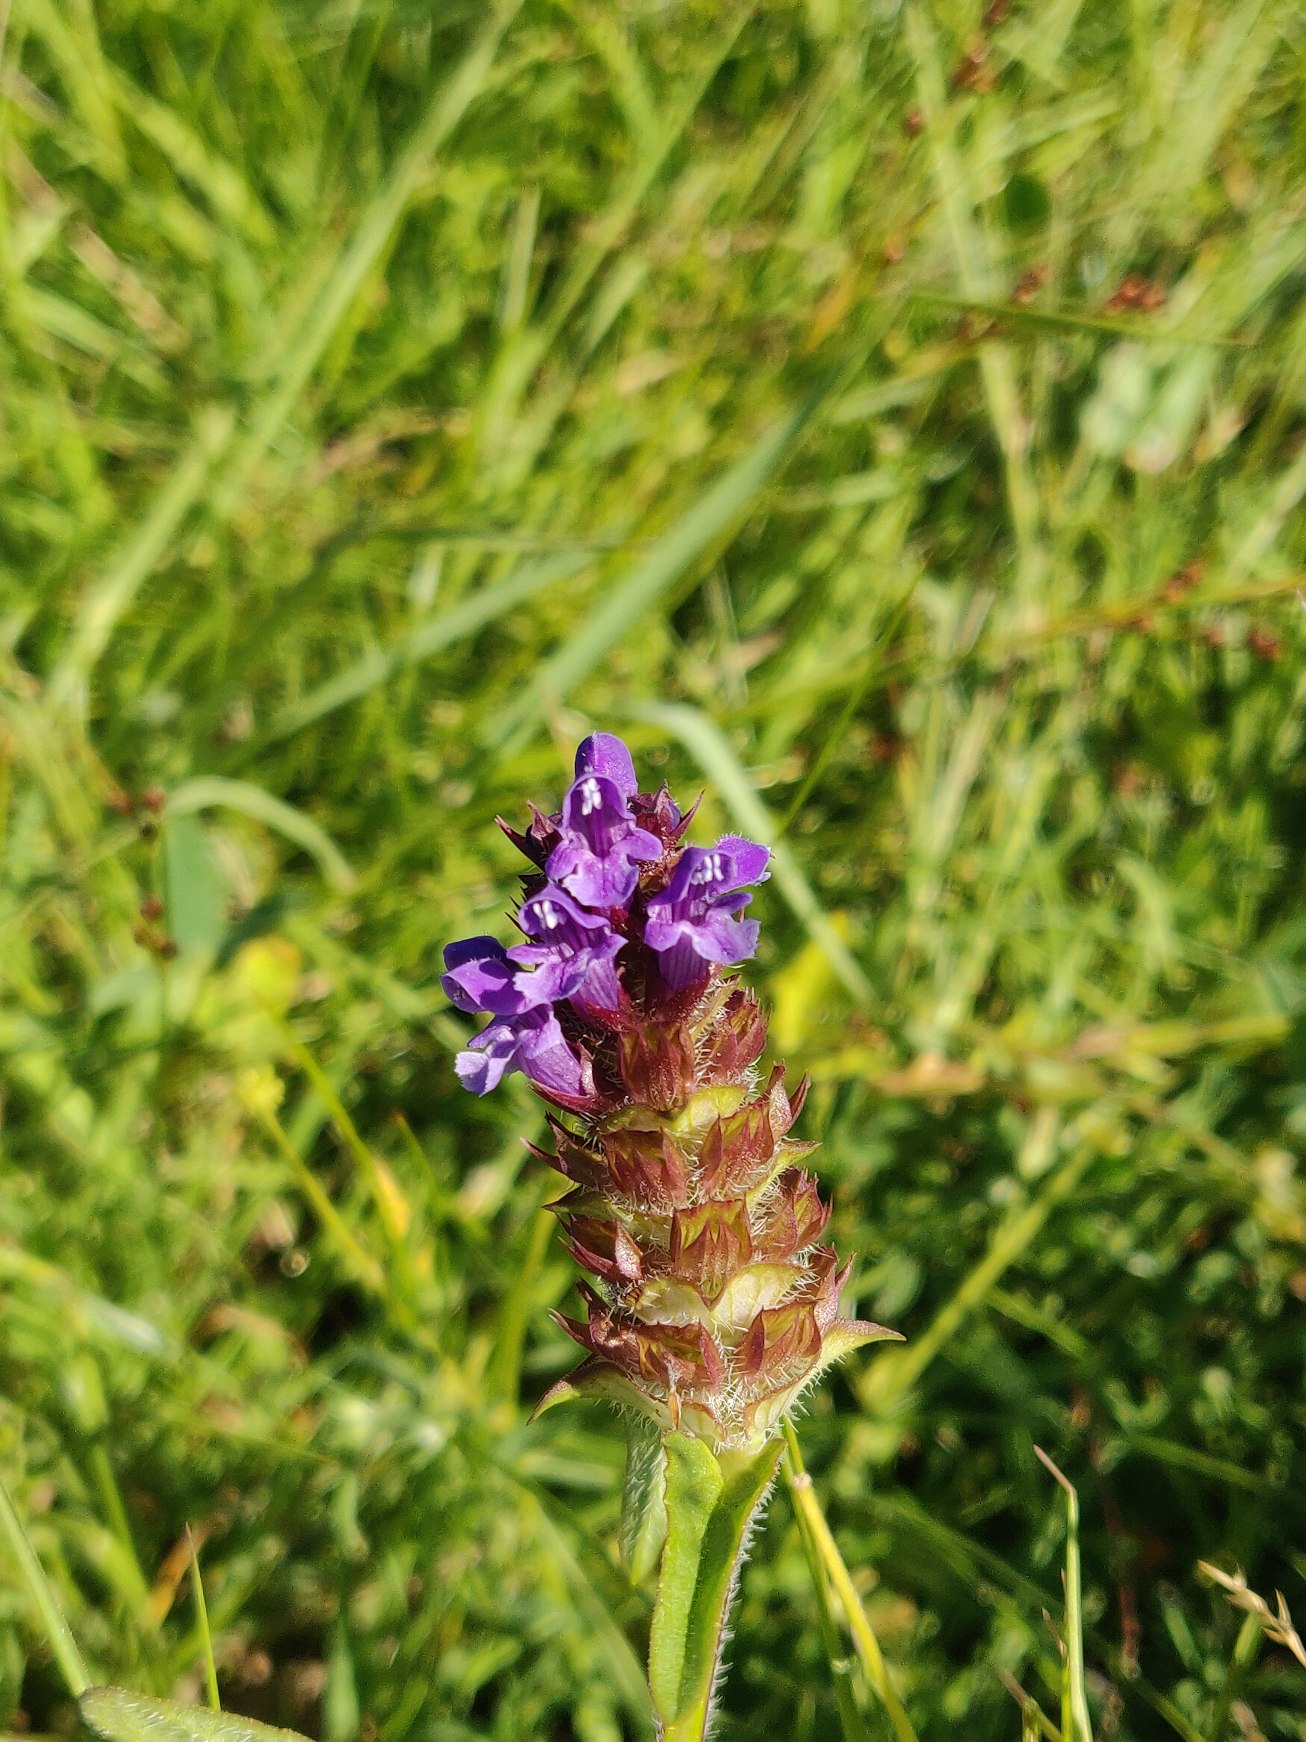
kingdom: Plantae
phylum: Tracheophyta
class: Magnoliopsida
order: Lamiales
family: Lamiaceae
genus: Prunella
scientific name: Prunella vulgaris
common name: Almindelig brunelle
